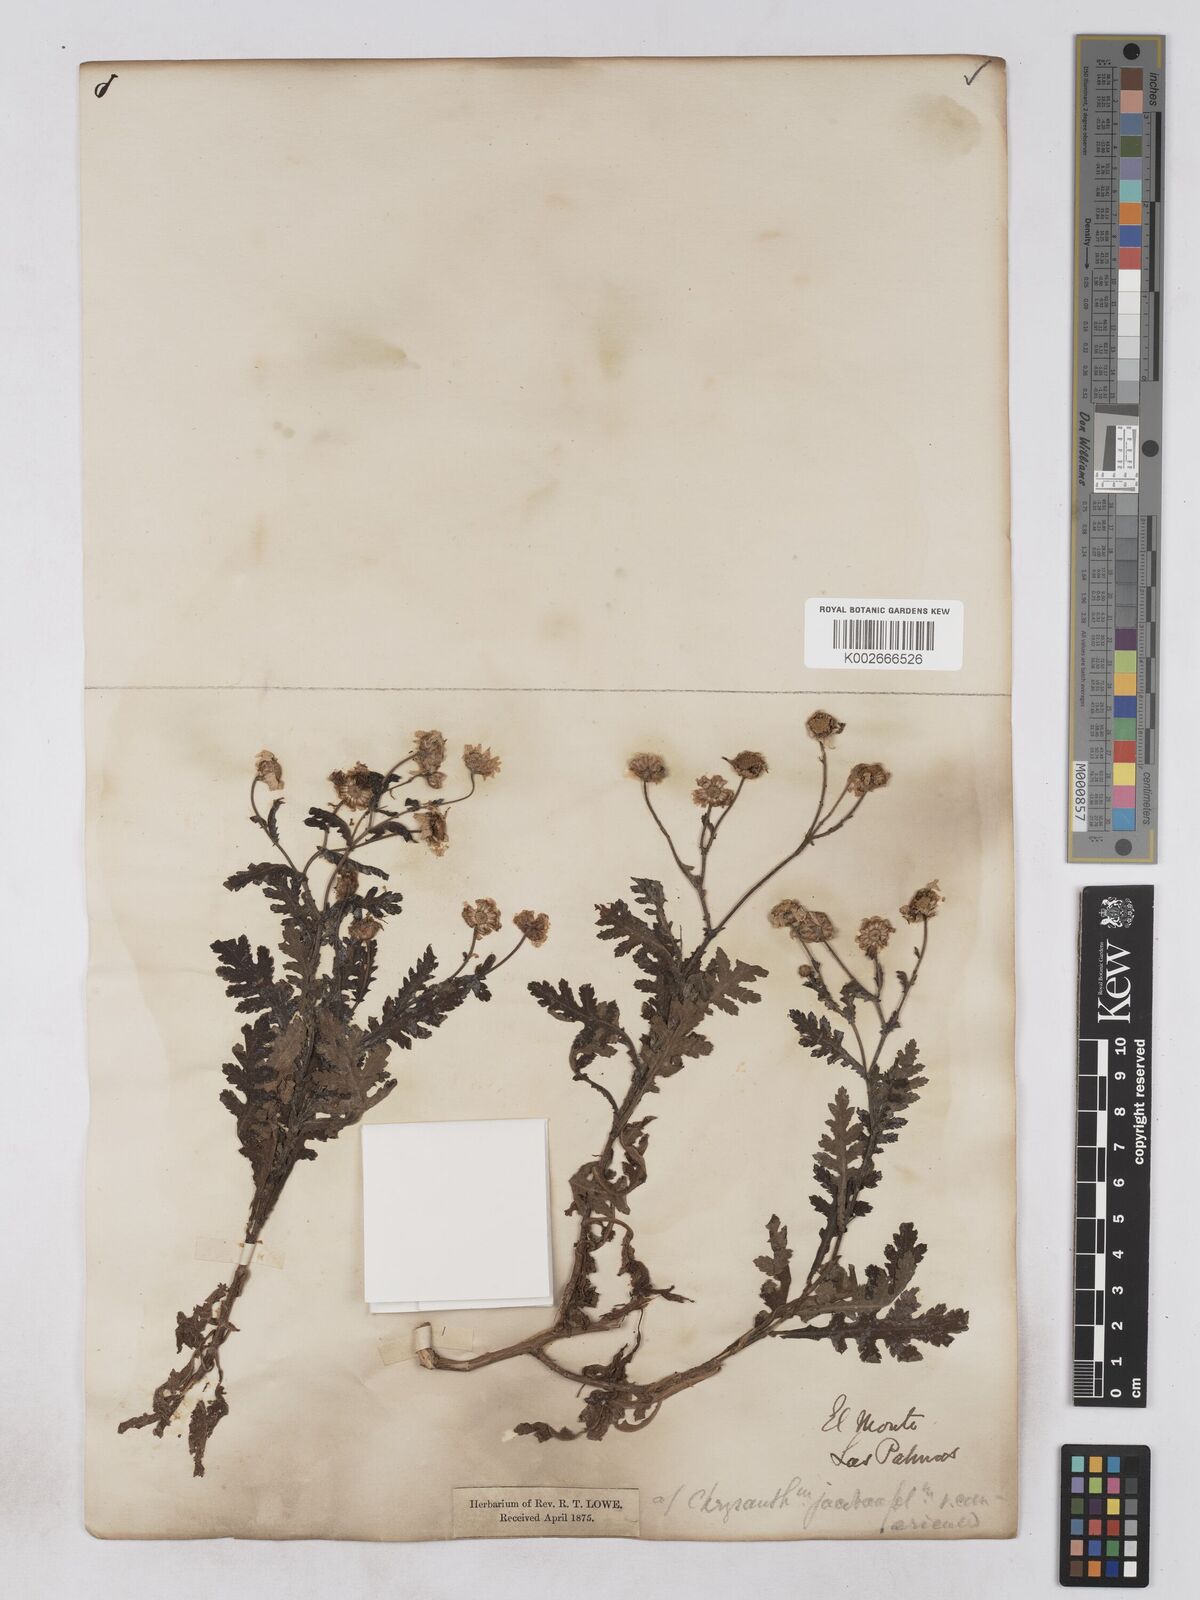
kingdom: Plantae
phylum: Tracheophyta
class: Magnoliopsida
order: Asterales
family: Asteraceae
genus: Argyranthemum
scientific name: Argyranthemum adauctum
